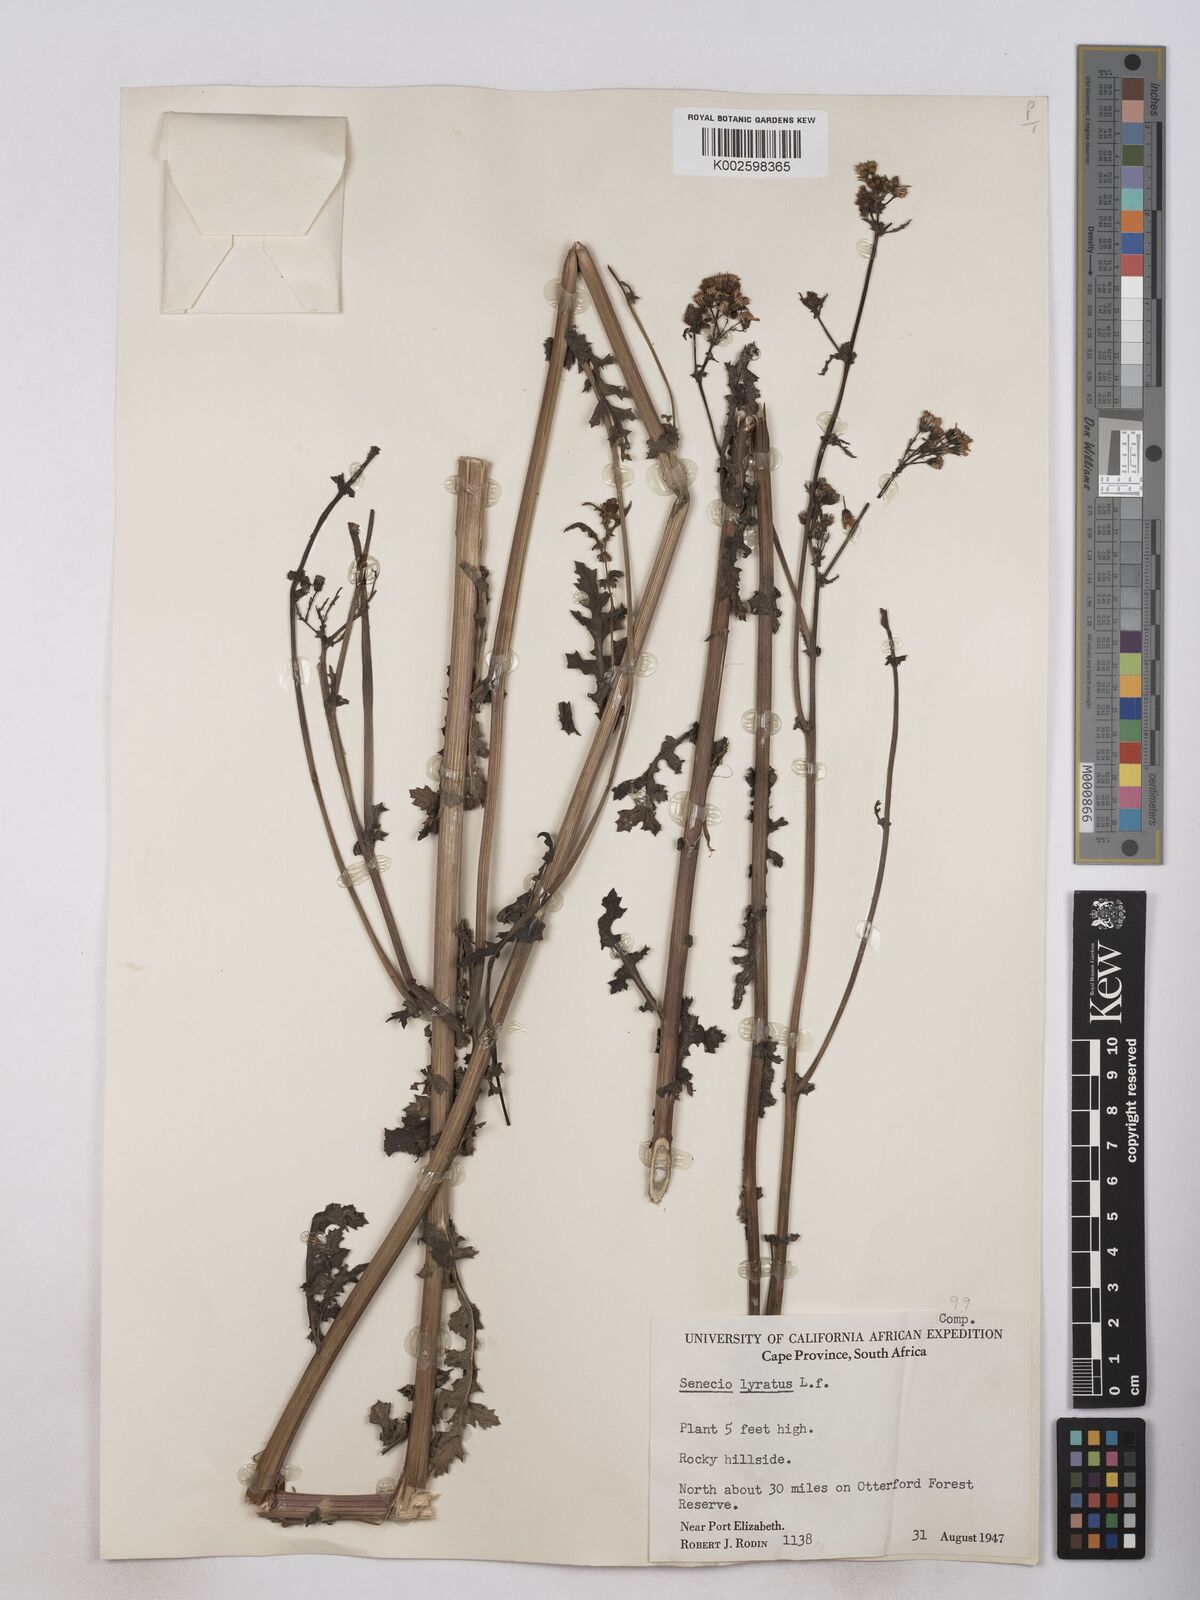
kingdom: Plantae
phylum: Tracheophyta
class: Magnoliopsida
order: Asterales
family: Asteraceae
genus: Senecio
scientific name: Senecio anapetes
